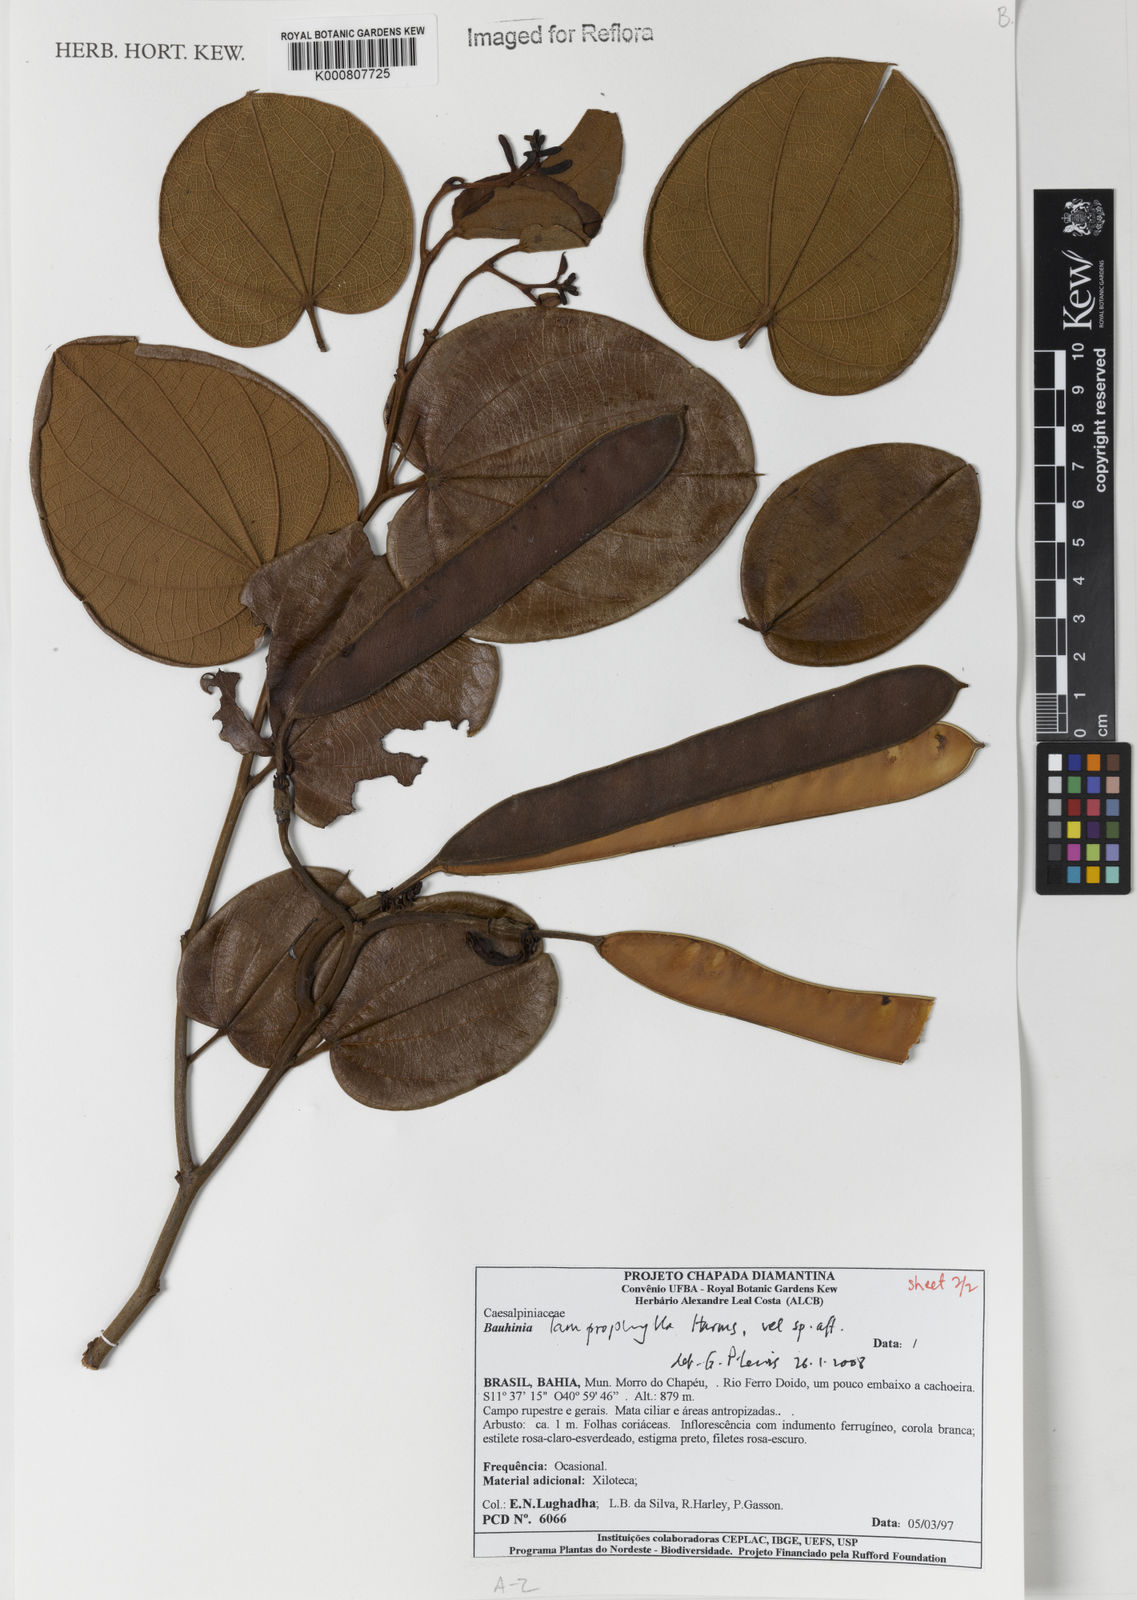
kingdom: Plantae
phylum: Tracheophyta
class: Magnoliopsida
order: Fabales
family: Fabaceae
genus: Bauhinia
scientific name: Bauhinia acuruana
